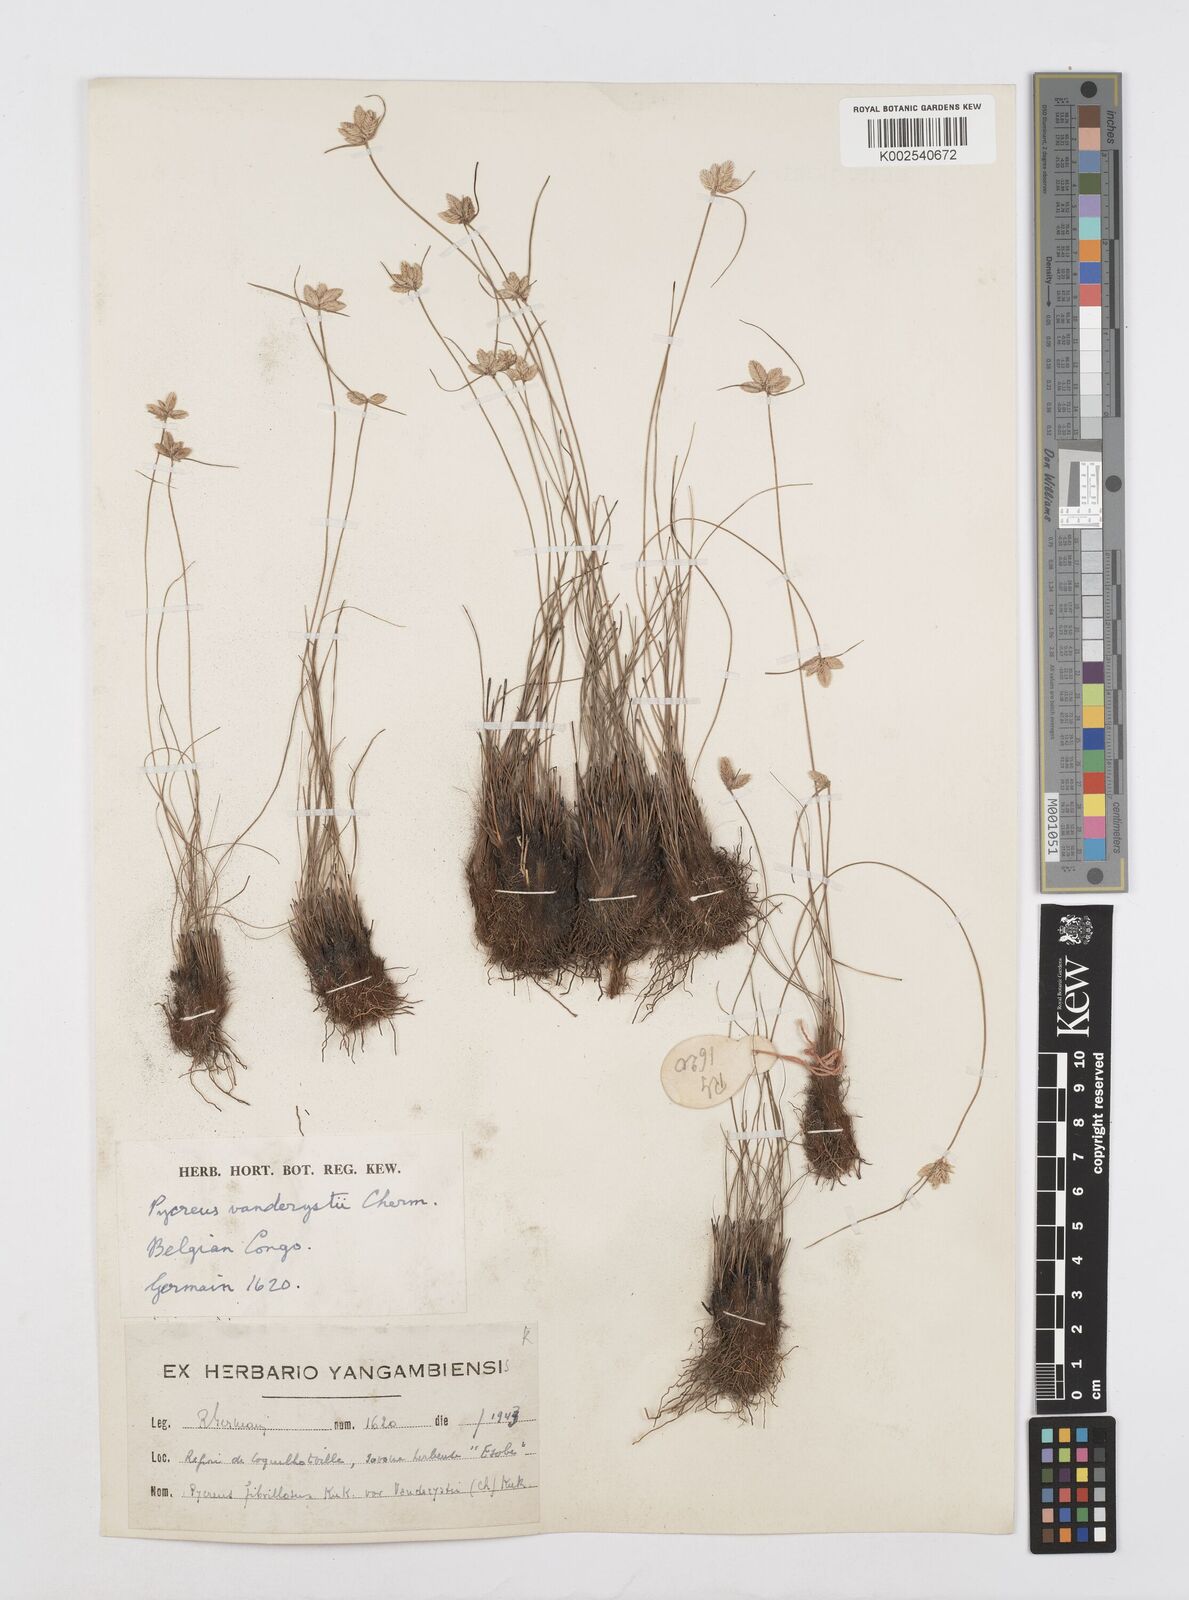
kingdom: Plantae
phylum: Tracheophyta
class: Liliopsida
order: Poales
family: Cyperaceae
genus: Cyperus
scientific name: Cyperus
